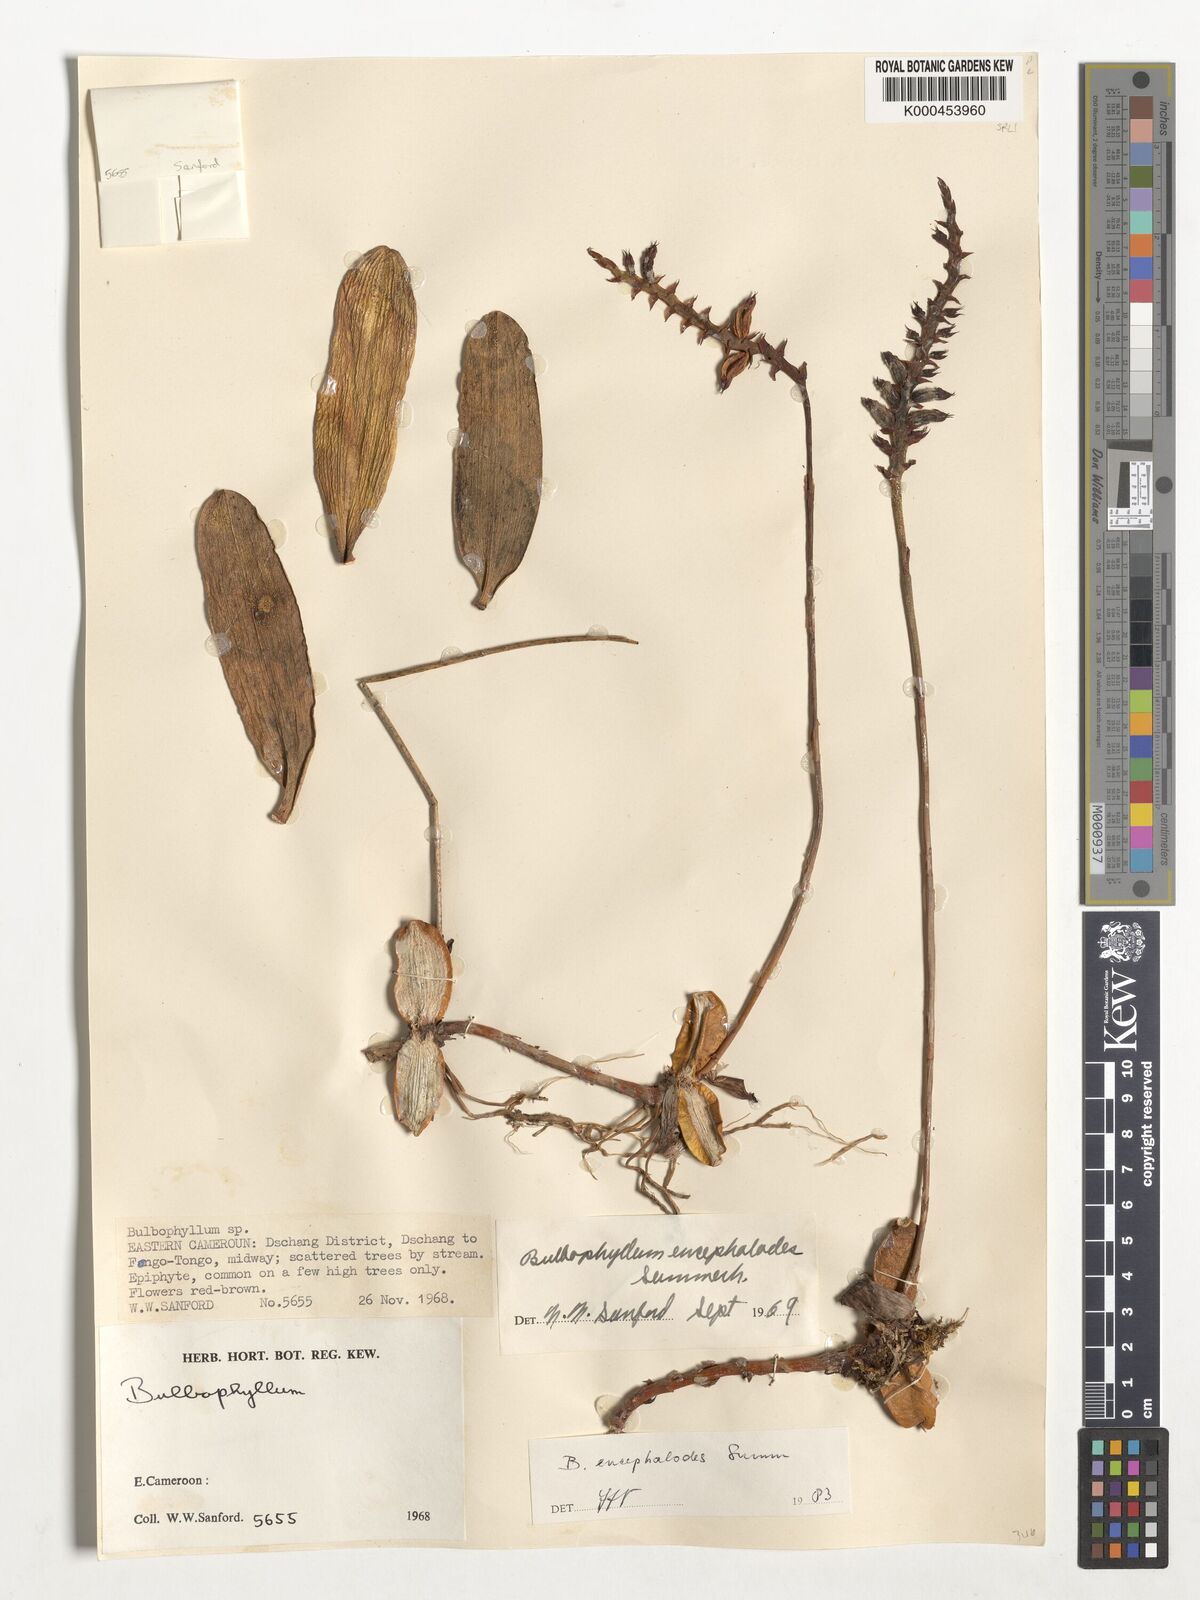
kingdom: Plantae
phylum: Tracheophyta
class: Liliopsida
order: Asparagales
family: Orchidaceae
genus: Bulbophyllum
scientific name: Bulbophyllum encephalodes
